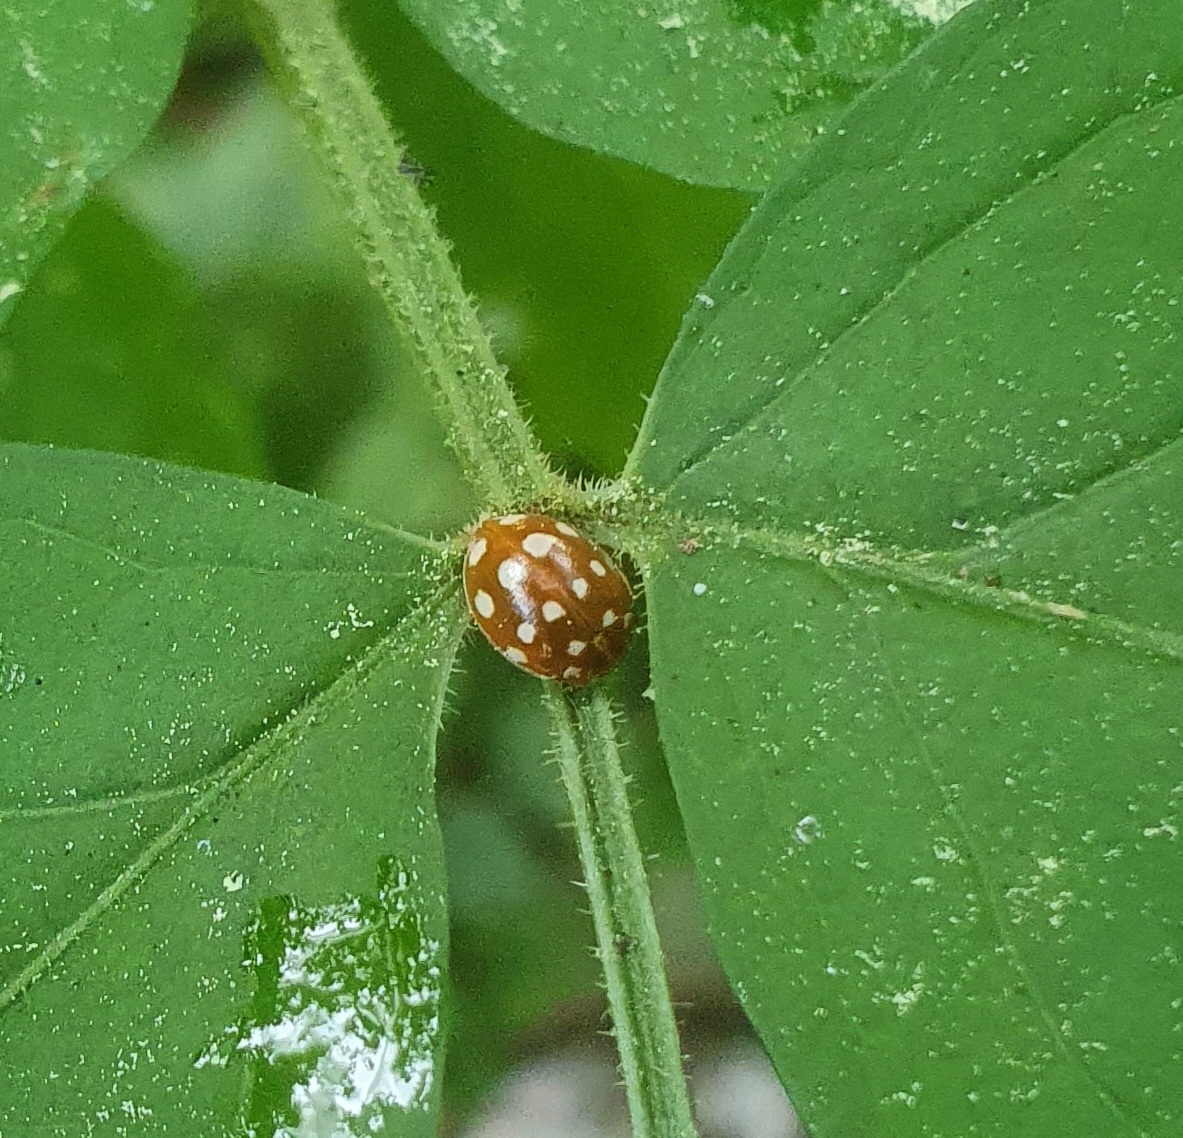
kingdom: Animalia
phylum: Arthropoda
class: Insecta
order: Coleoptera
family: Coccinellidae
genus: Calvia
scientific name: Calvia quatuordecimguttata
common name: Fjortenplettet mariehøne
